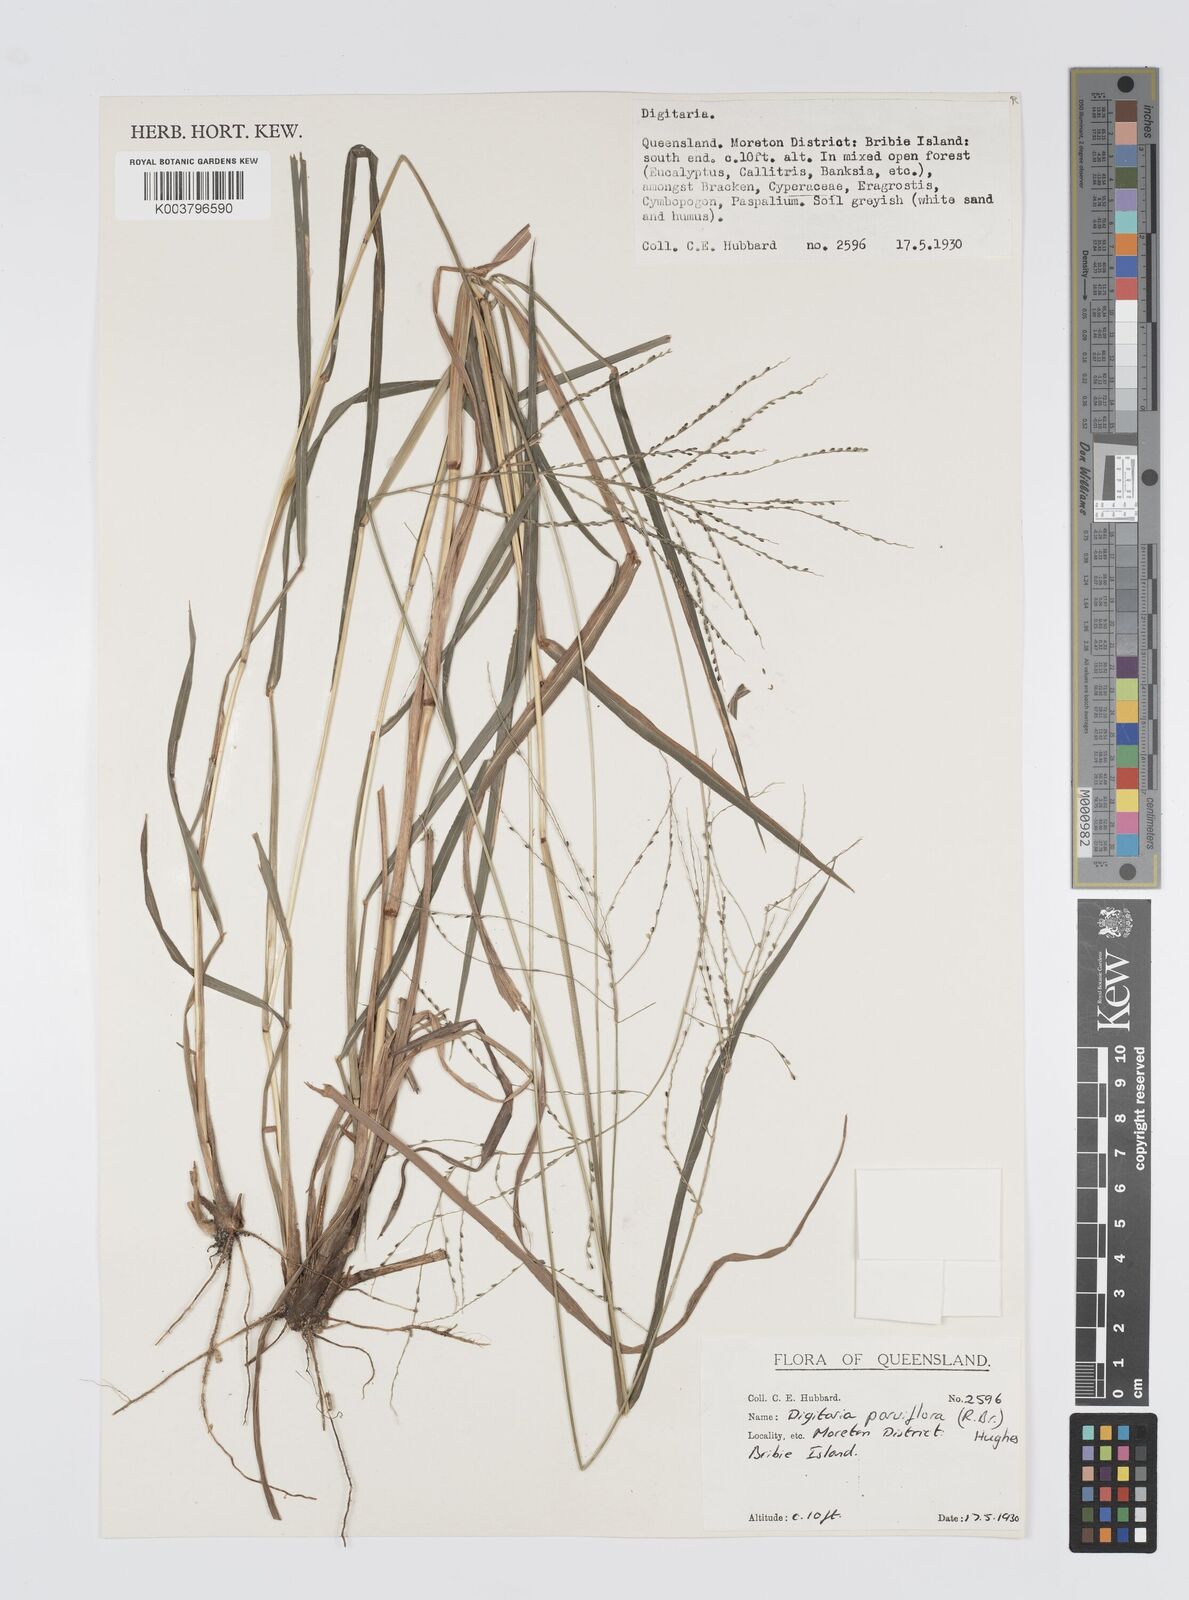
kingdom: Plantae
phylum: Tracheophyta
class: Liliopsida
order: Poales
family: Poaceae
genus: Digitaria
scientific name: Digitaria parviflora
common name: Small-flower finger grass
